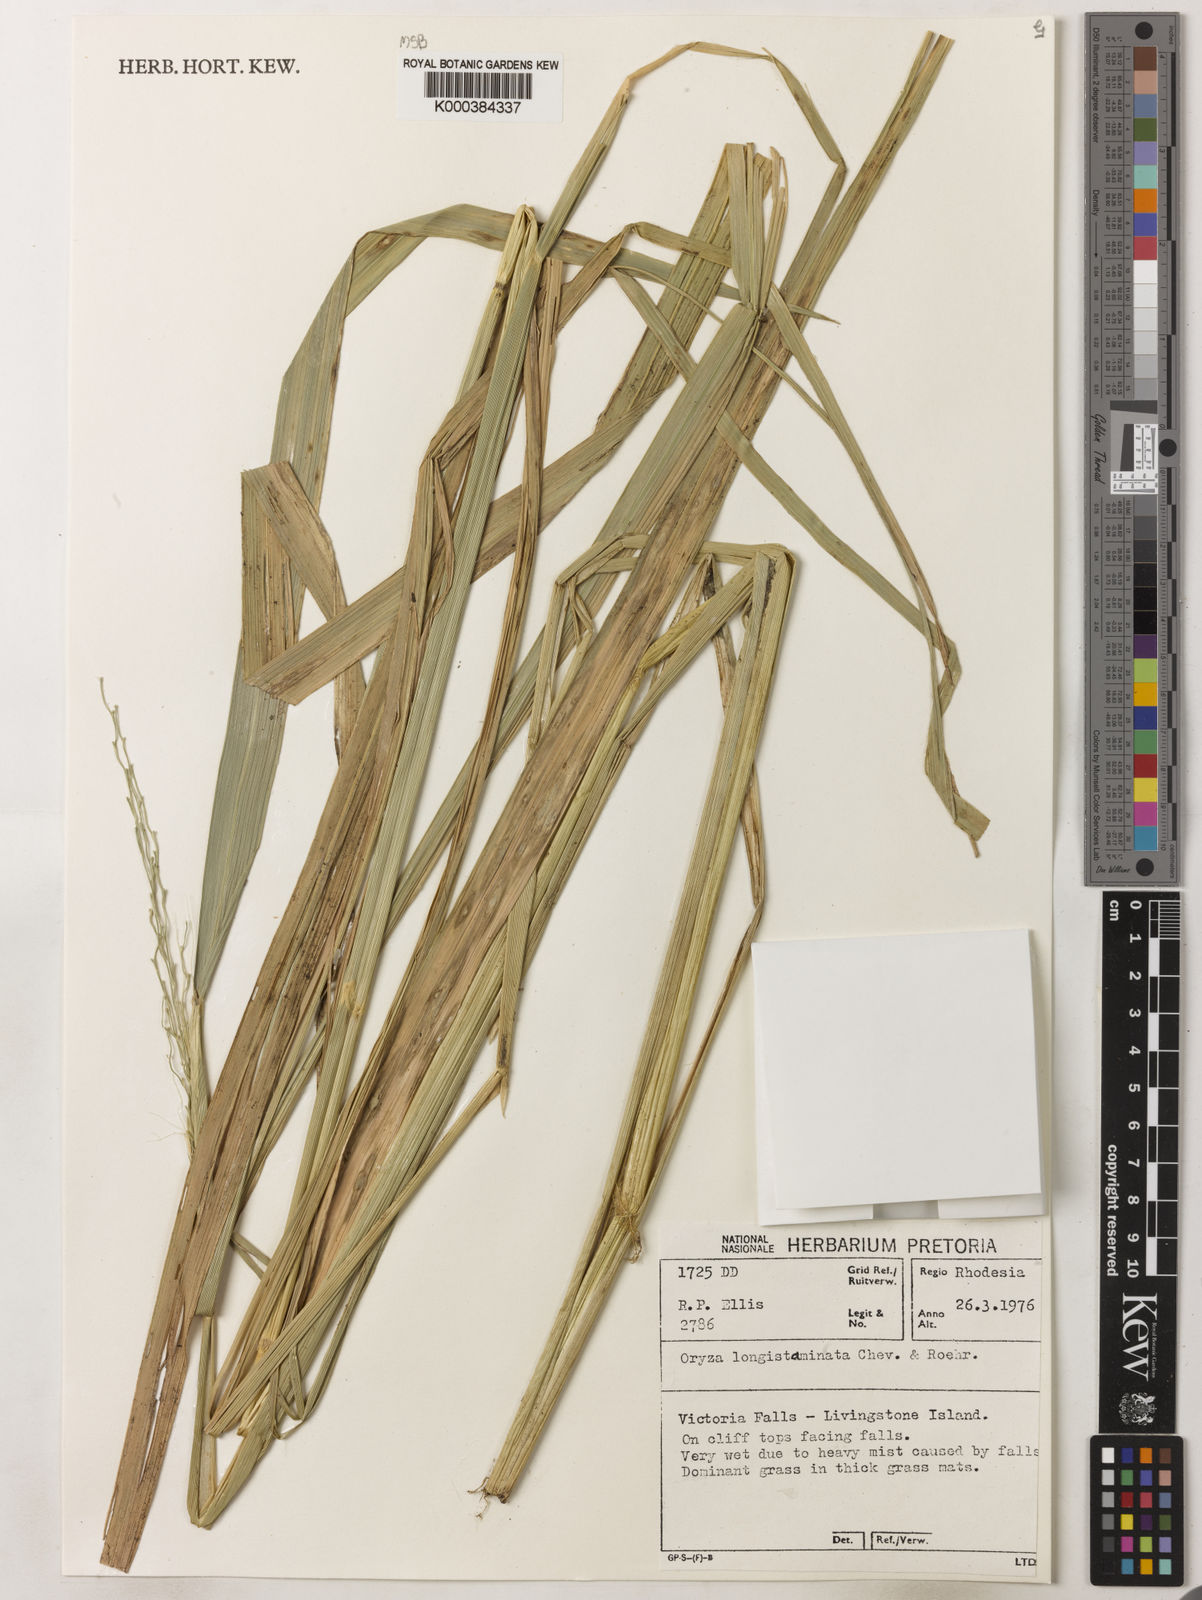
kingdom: Plantae
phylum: Tracheophyta
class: Liliopsida
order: Poales
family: Poaceae
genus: Oryza
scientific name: Oryza longistaminata
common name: Red rice
